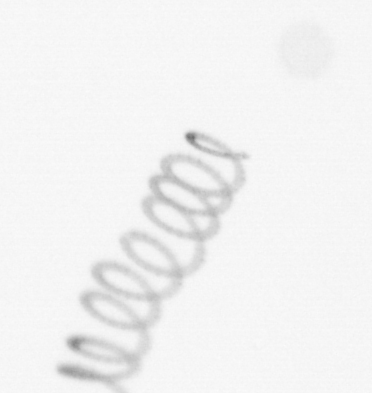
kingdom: Chromista
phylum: Ochrophyta
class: Bacillariophyceae
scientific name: Bacillariophyceae
